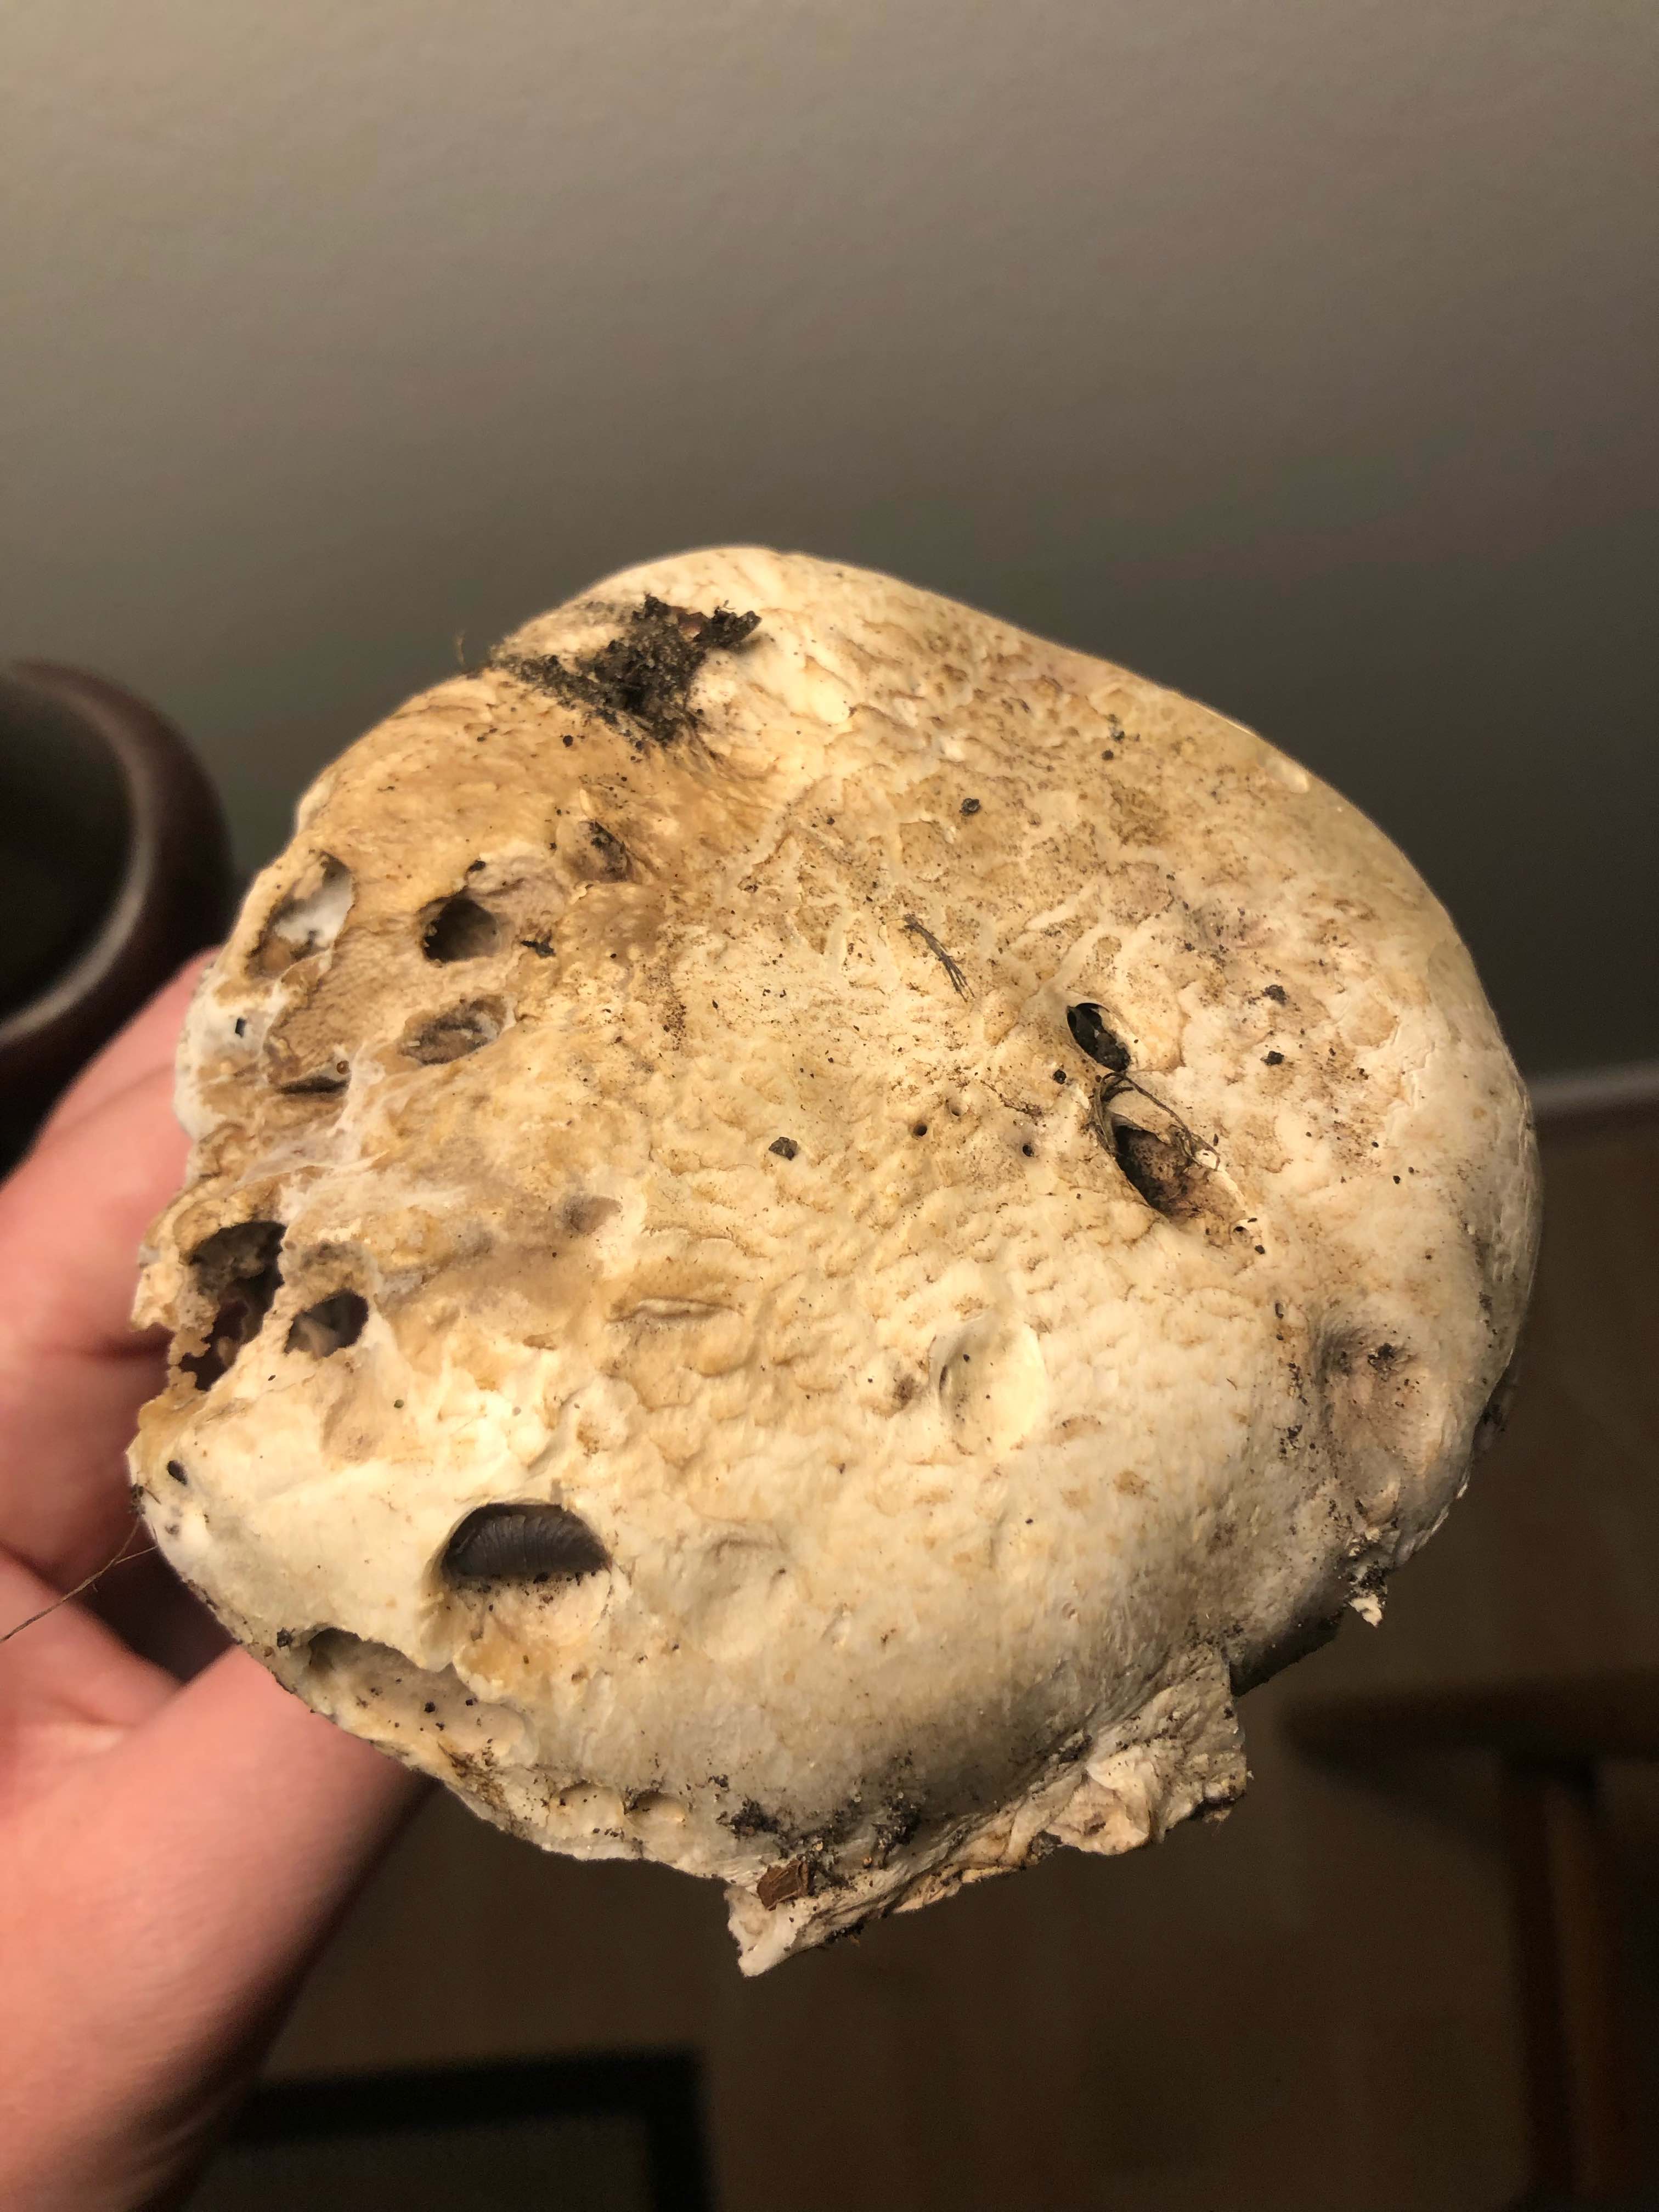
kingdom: Fungi
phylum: Basidiomycota
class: Agaricomycetes
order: Agaricales
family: Agaricaceae
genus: Agaricus
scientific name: Agaricus bitorquis
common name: vej-champignon
